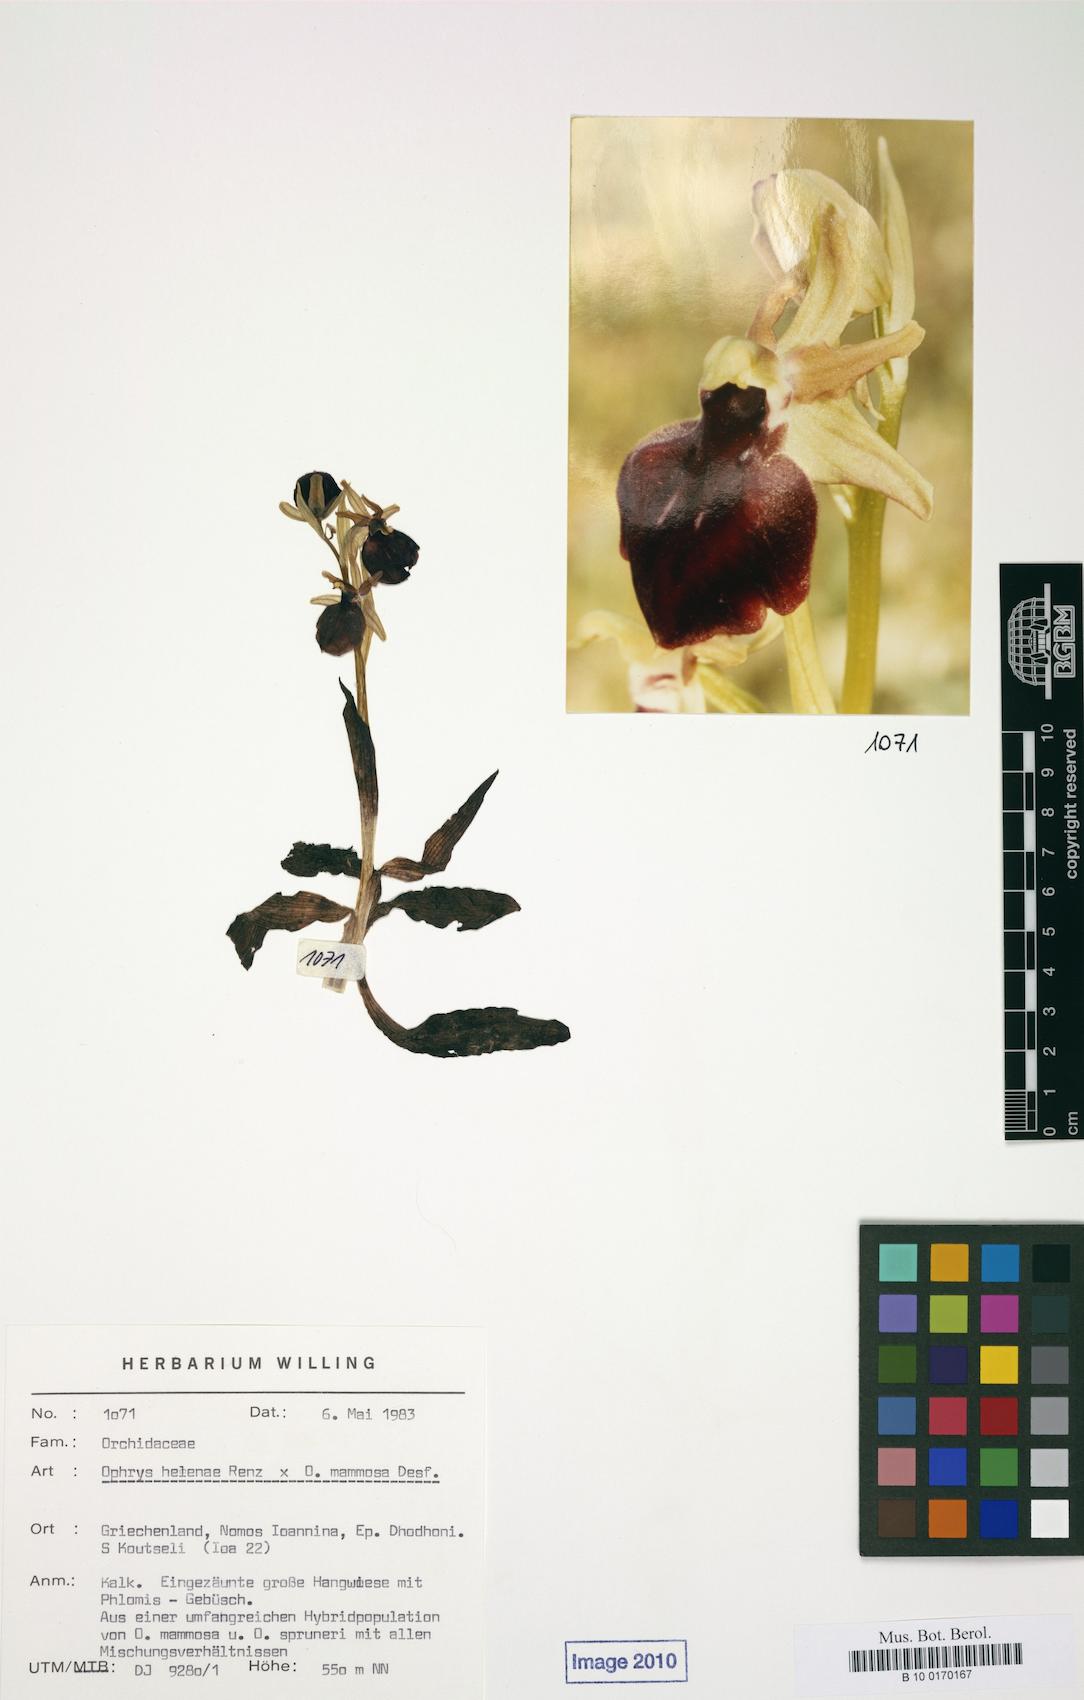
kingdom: Plantae
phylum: Tracheophyta
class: Liliopsida
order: Asparagales
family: Orchidaceae
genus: Ophrys
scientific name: Ophrys sphegodes
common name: Early spider-orchid
